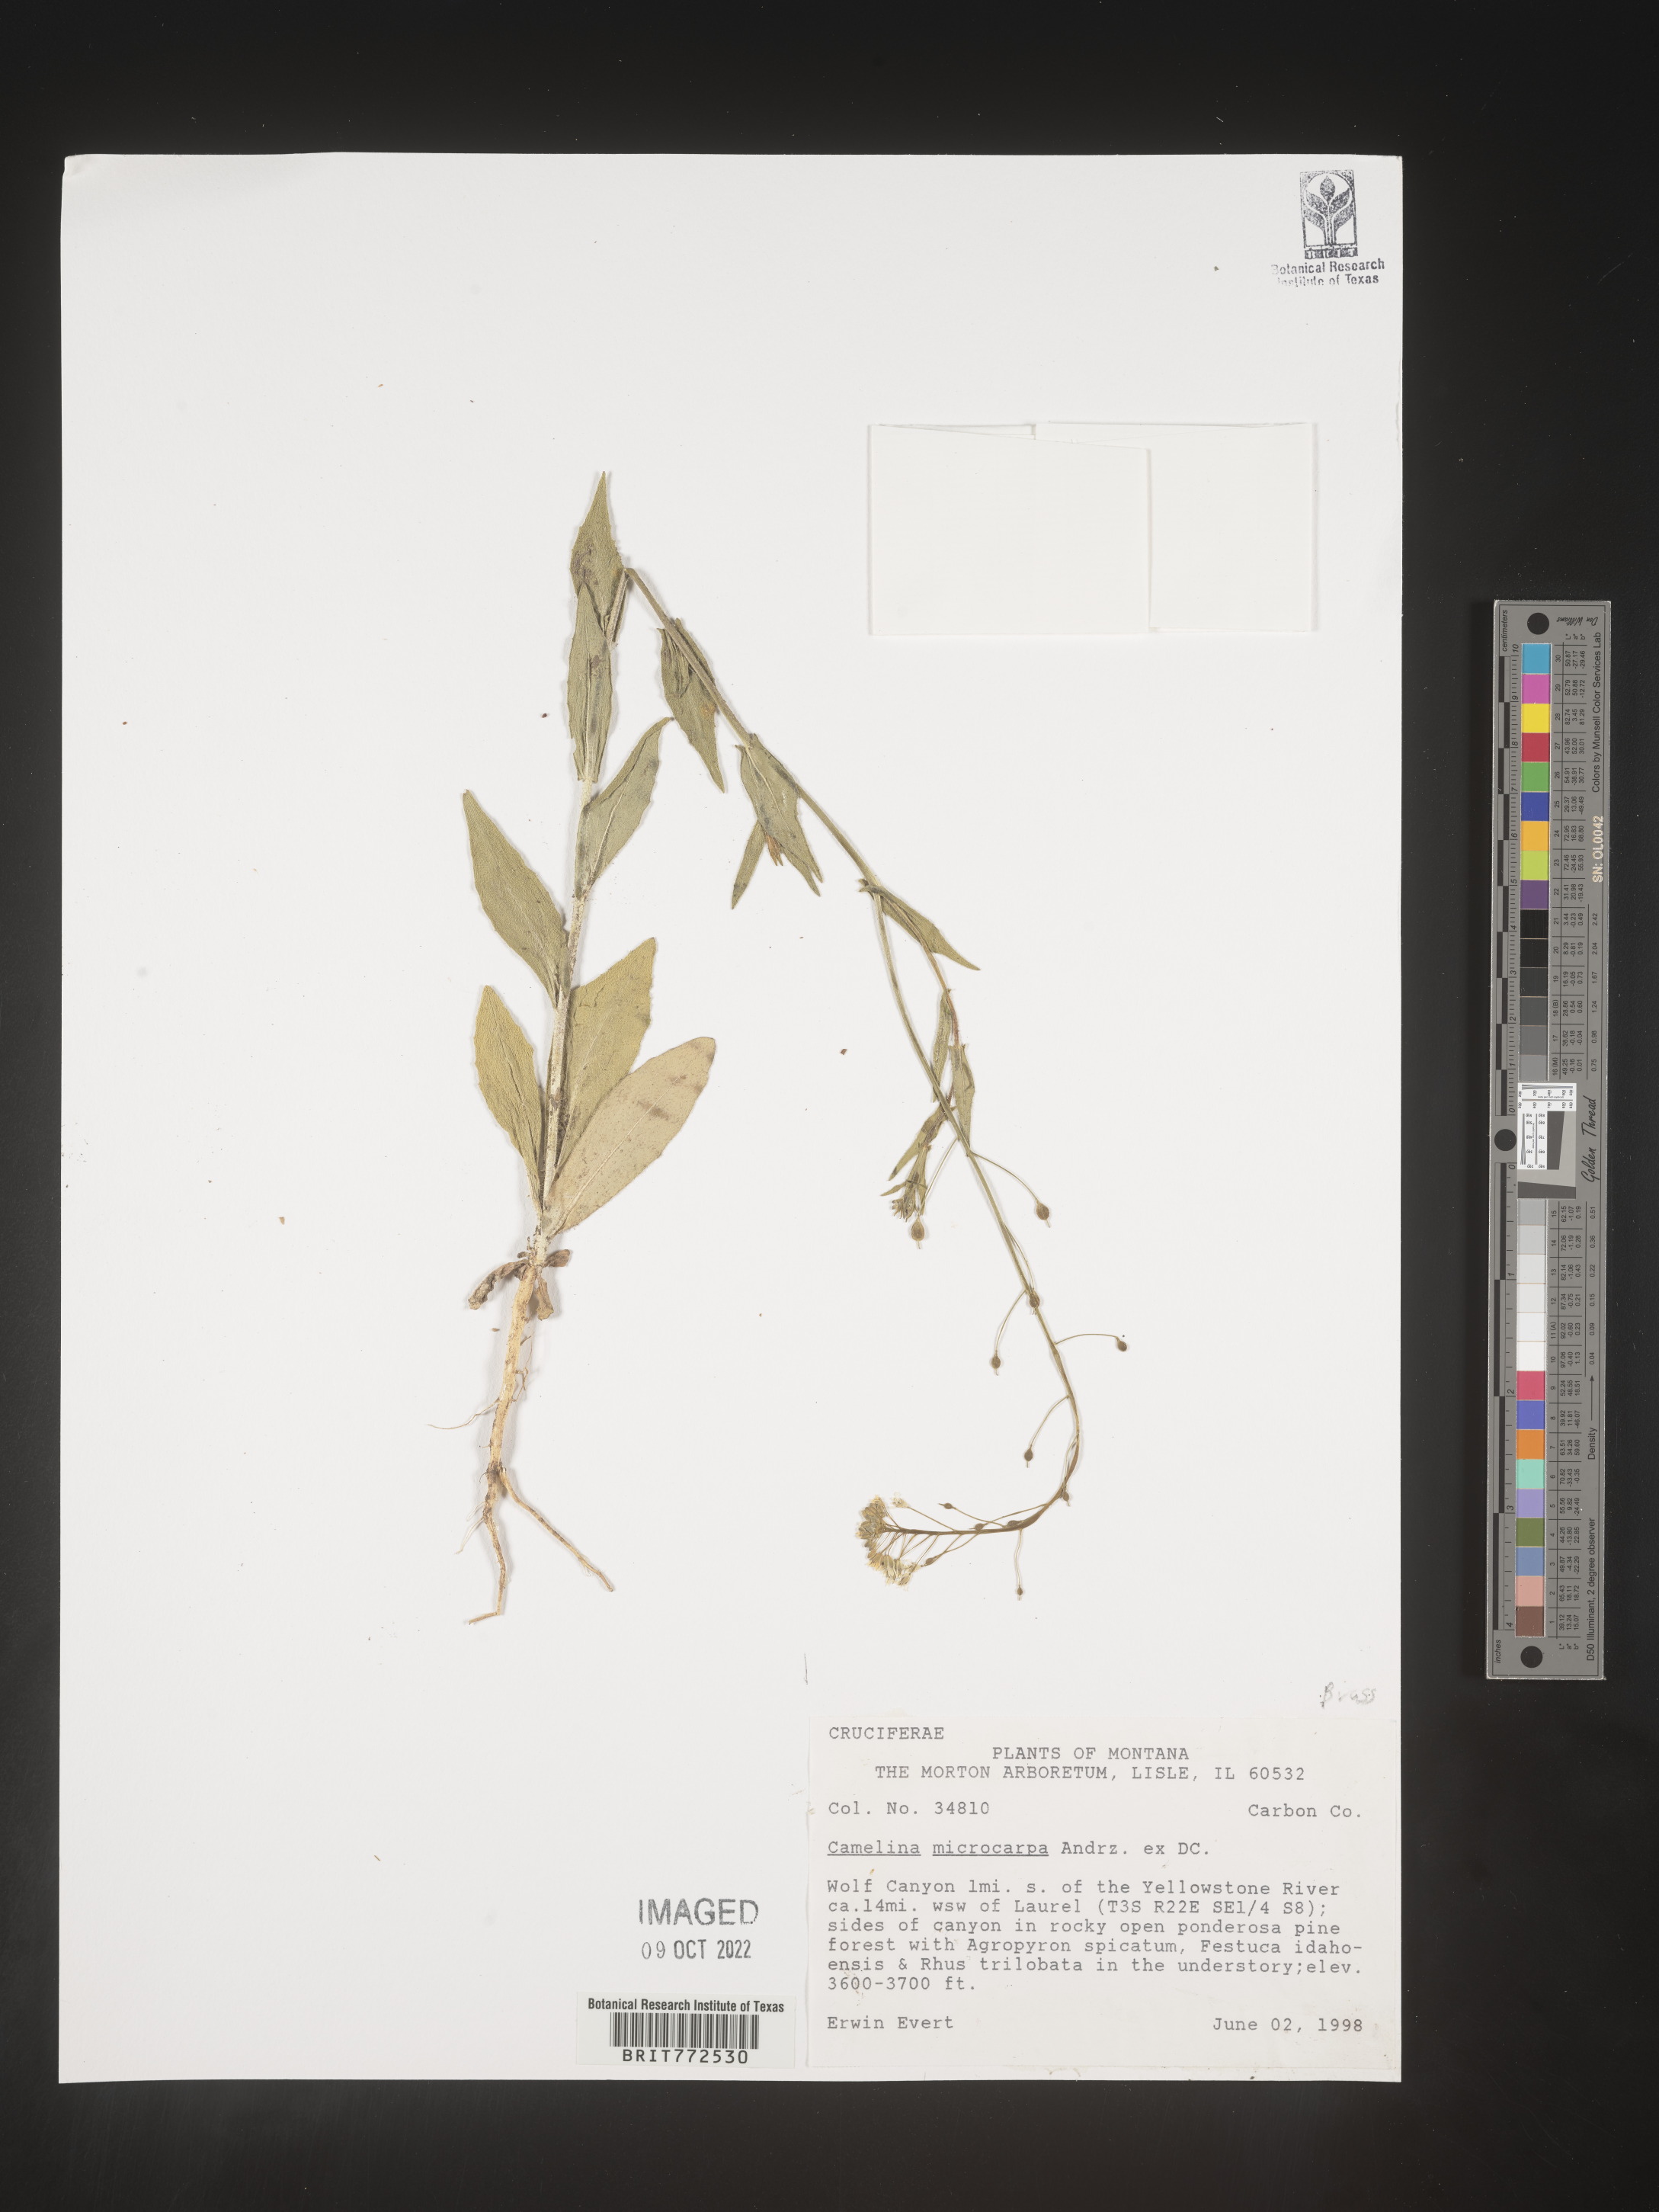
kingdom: Plantae
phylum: Tracheophyta
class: Magnoliopsida
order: Brassicales
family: Brassicaceae
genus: Camelina
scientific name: Camelina microcarpa
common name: Lesser gold-of-pleasure
